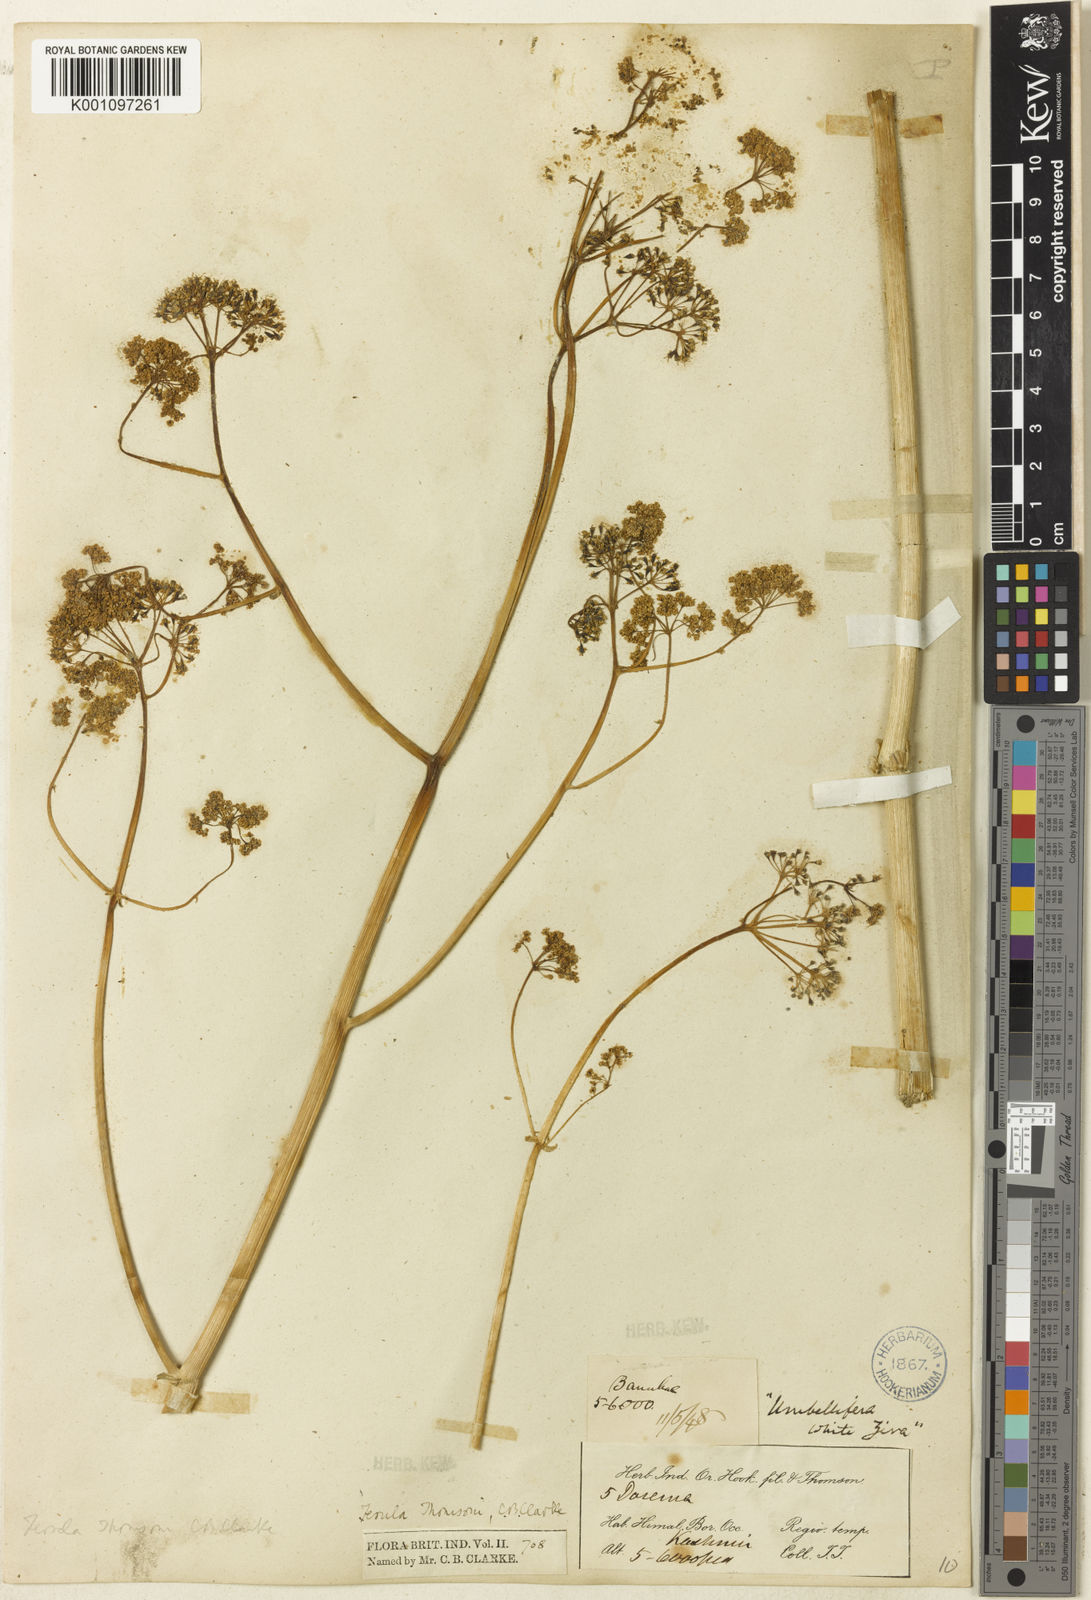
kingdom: Plantae
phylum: Tracheophyta
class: Magnoliopsida
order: Apiales
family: Apiaceae
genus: Ferula
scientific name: Ferula ovina
